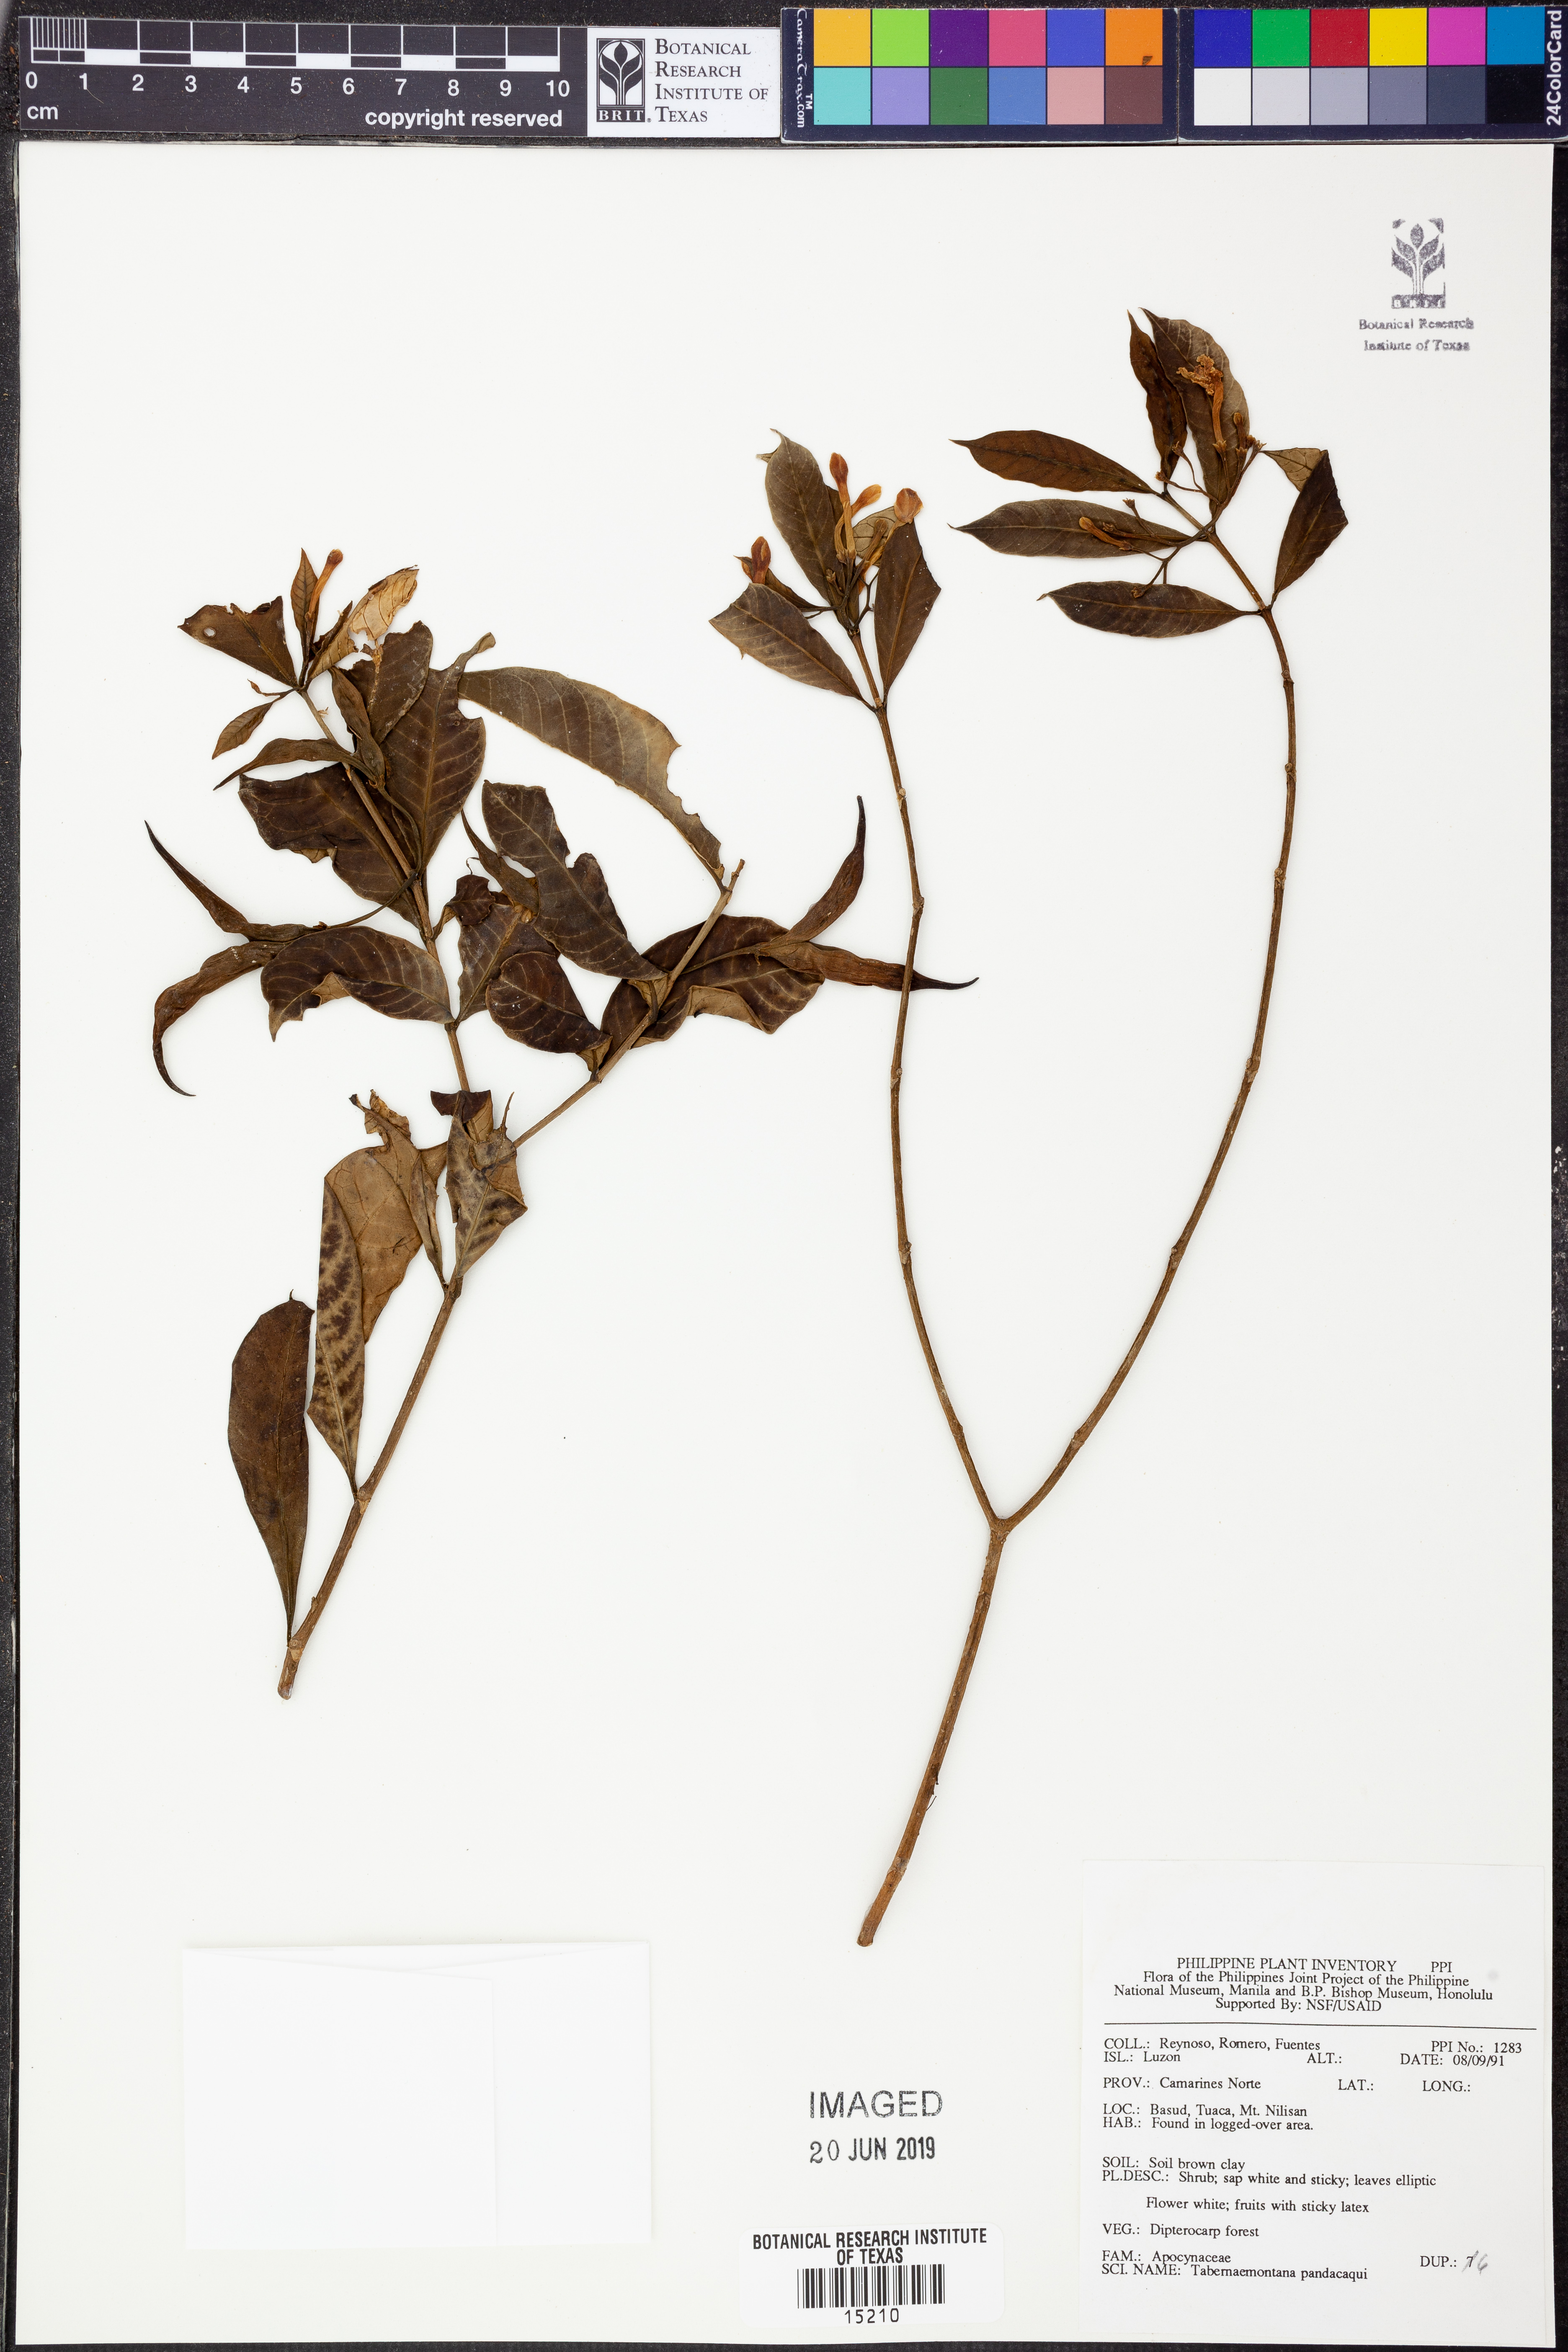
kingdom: Plantae
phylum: Tracheophyta
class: Magnoliopsida
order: Gentianales
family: Apocynaceae
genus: Tabernaemontana
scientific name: Tabernaemontana pandacaqui
